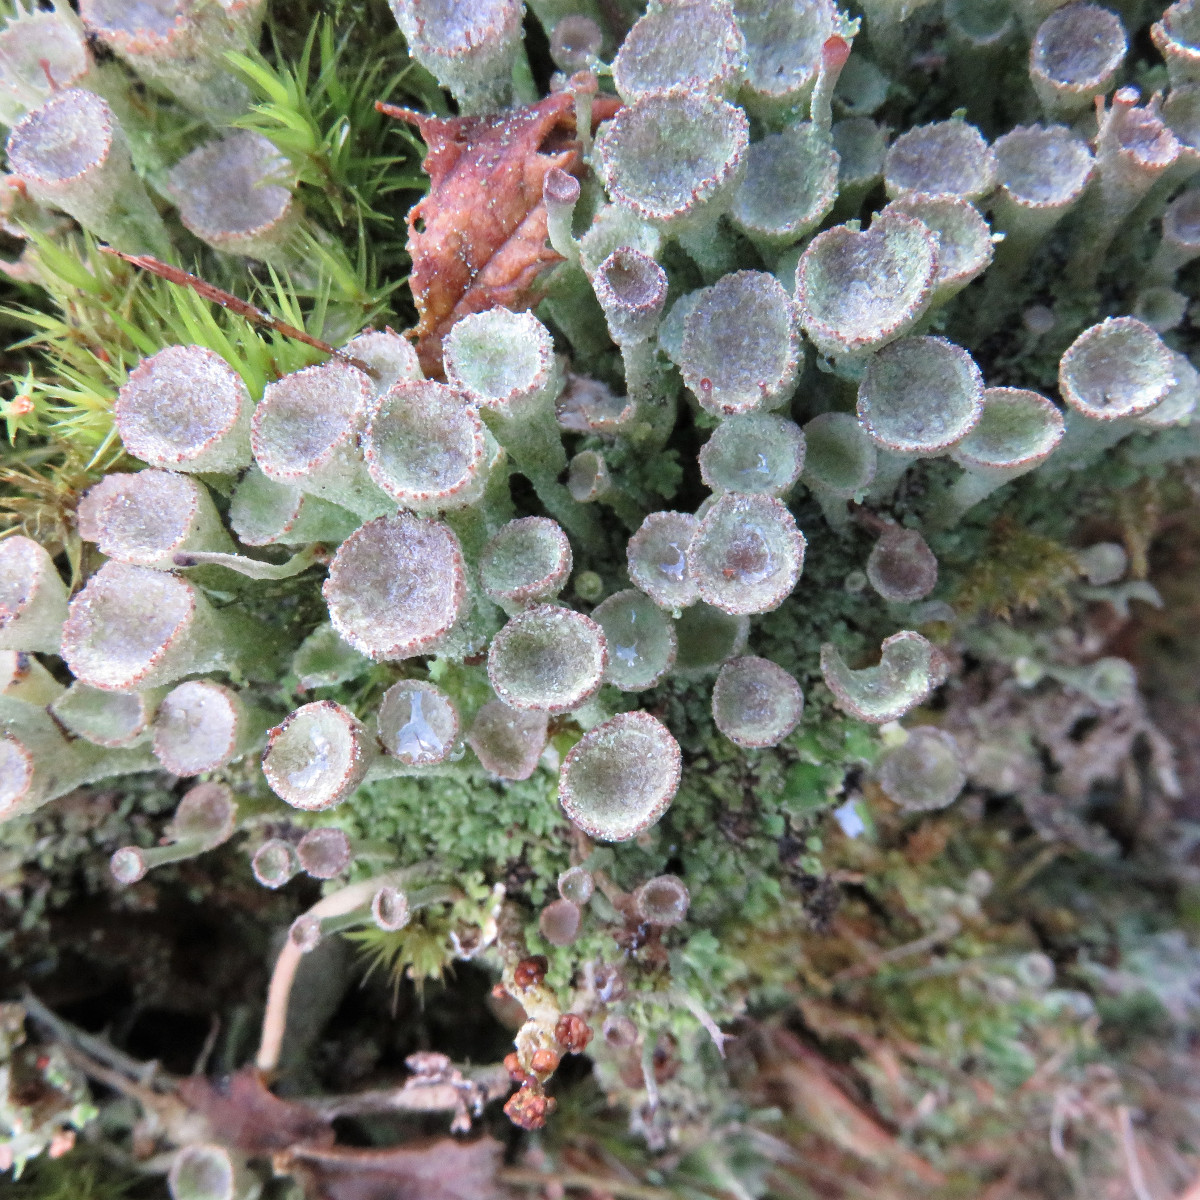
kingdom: Fungi
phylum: Ascomycota
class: Lecanoromycetes
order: Lecanorales
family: Cladoniaceae
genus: Cladonia
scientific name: Cladonia
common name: brungrøn bægerlav
